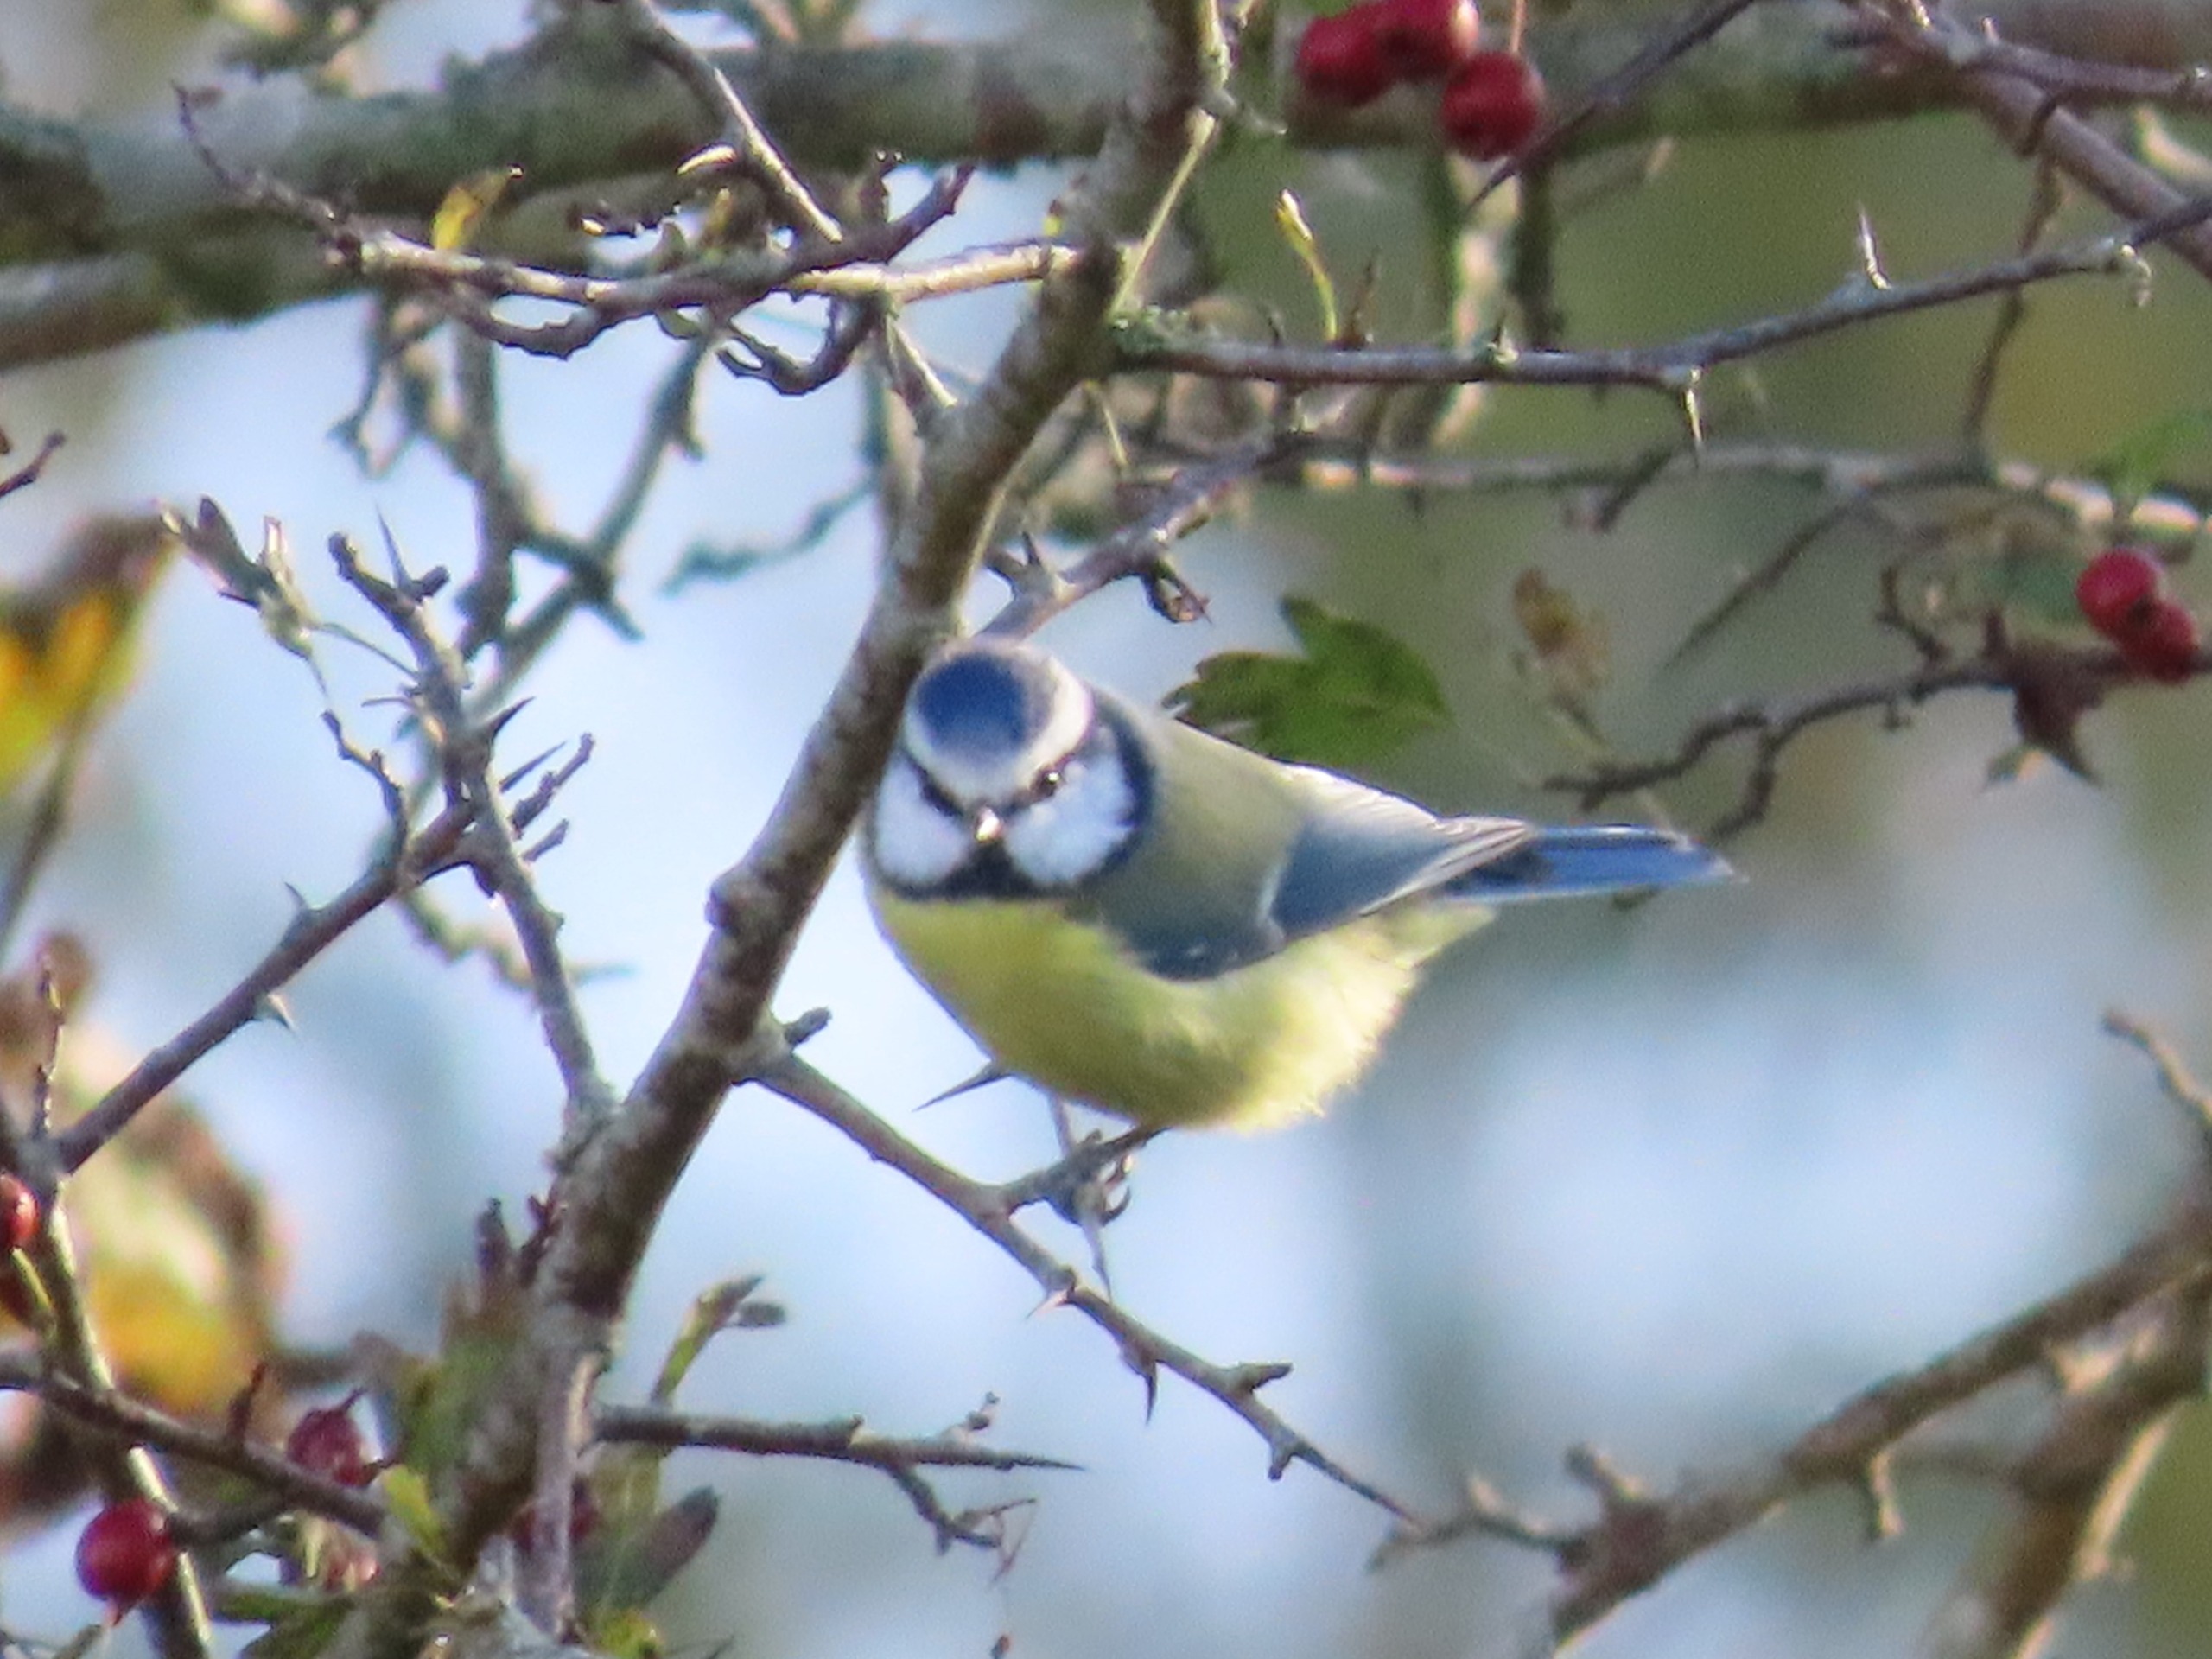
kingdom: Animalia
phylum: Chordata
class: Aves
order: Passeriformes
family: Paridae
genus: Cyanistes
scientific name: Cyanistes caeruleus
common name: Blåmejse
